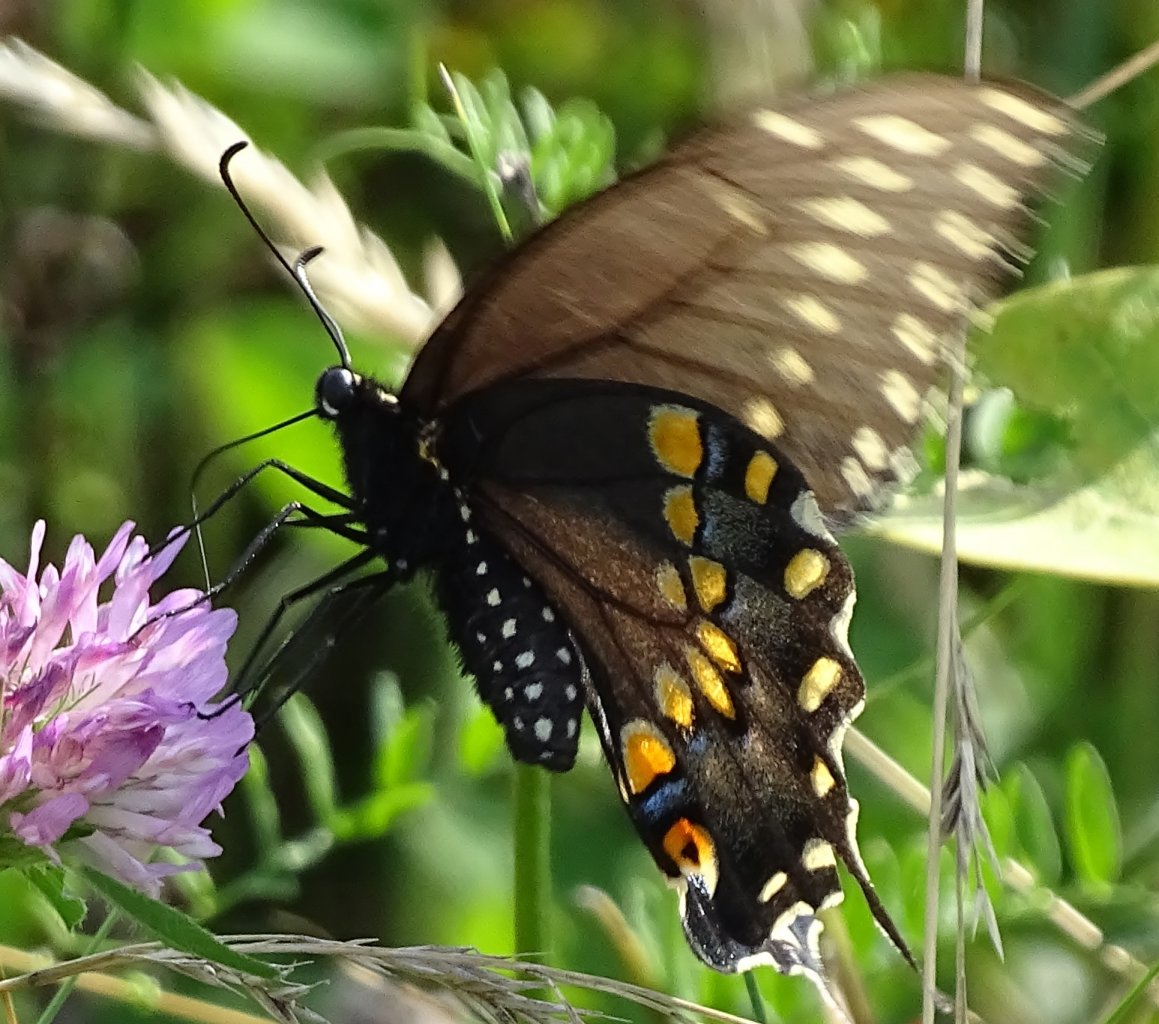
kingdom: Animalia
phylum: Arthropoda
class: Insecta
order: Lepidoptera
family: Papilionidae
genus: Papilio
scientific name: Papilio polyxenes
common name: Black Swallowtail
